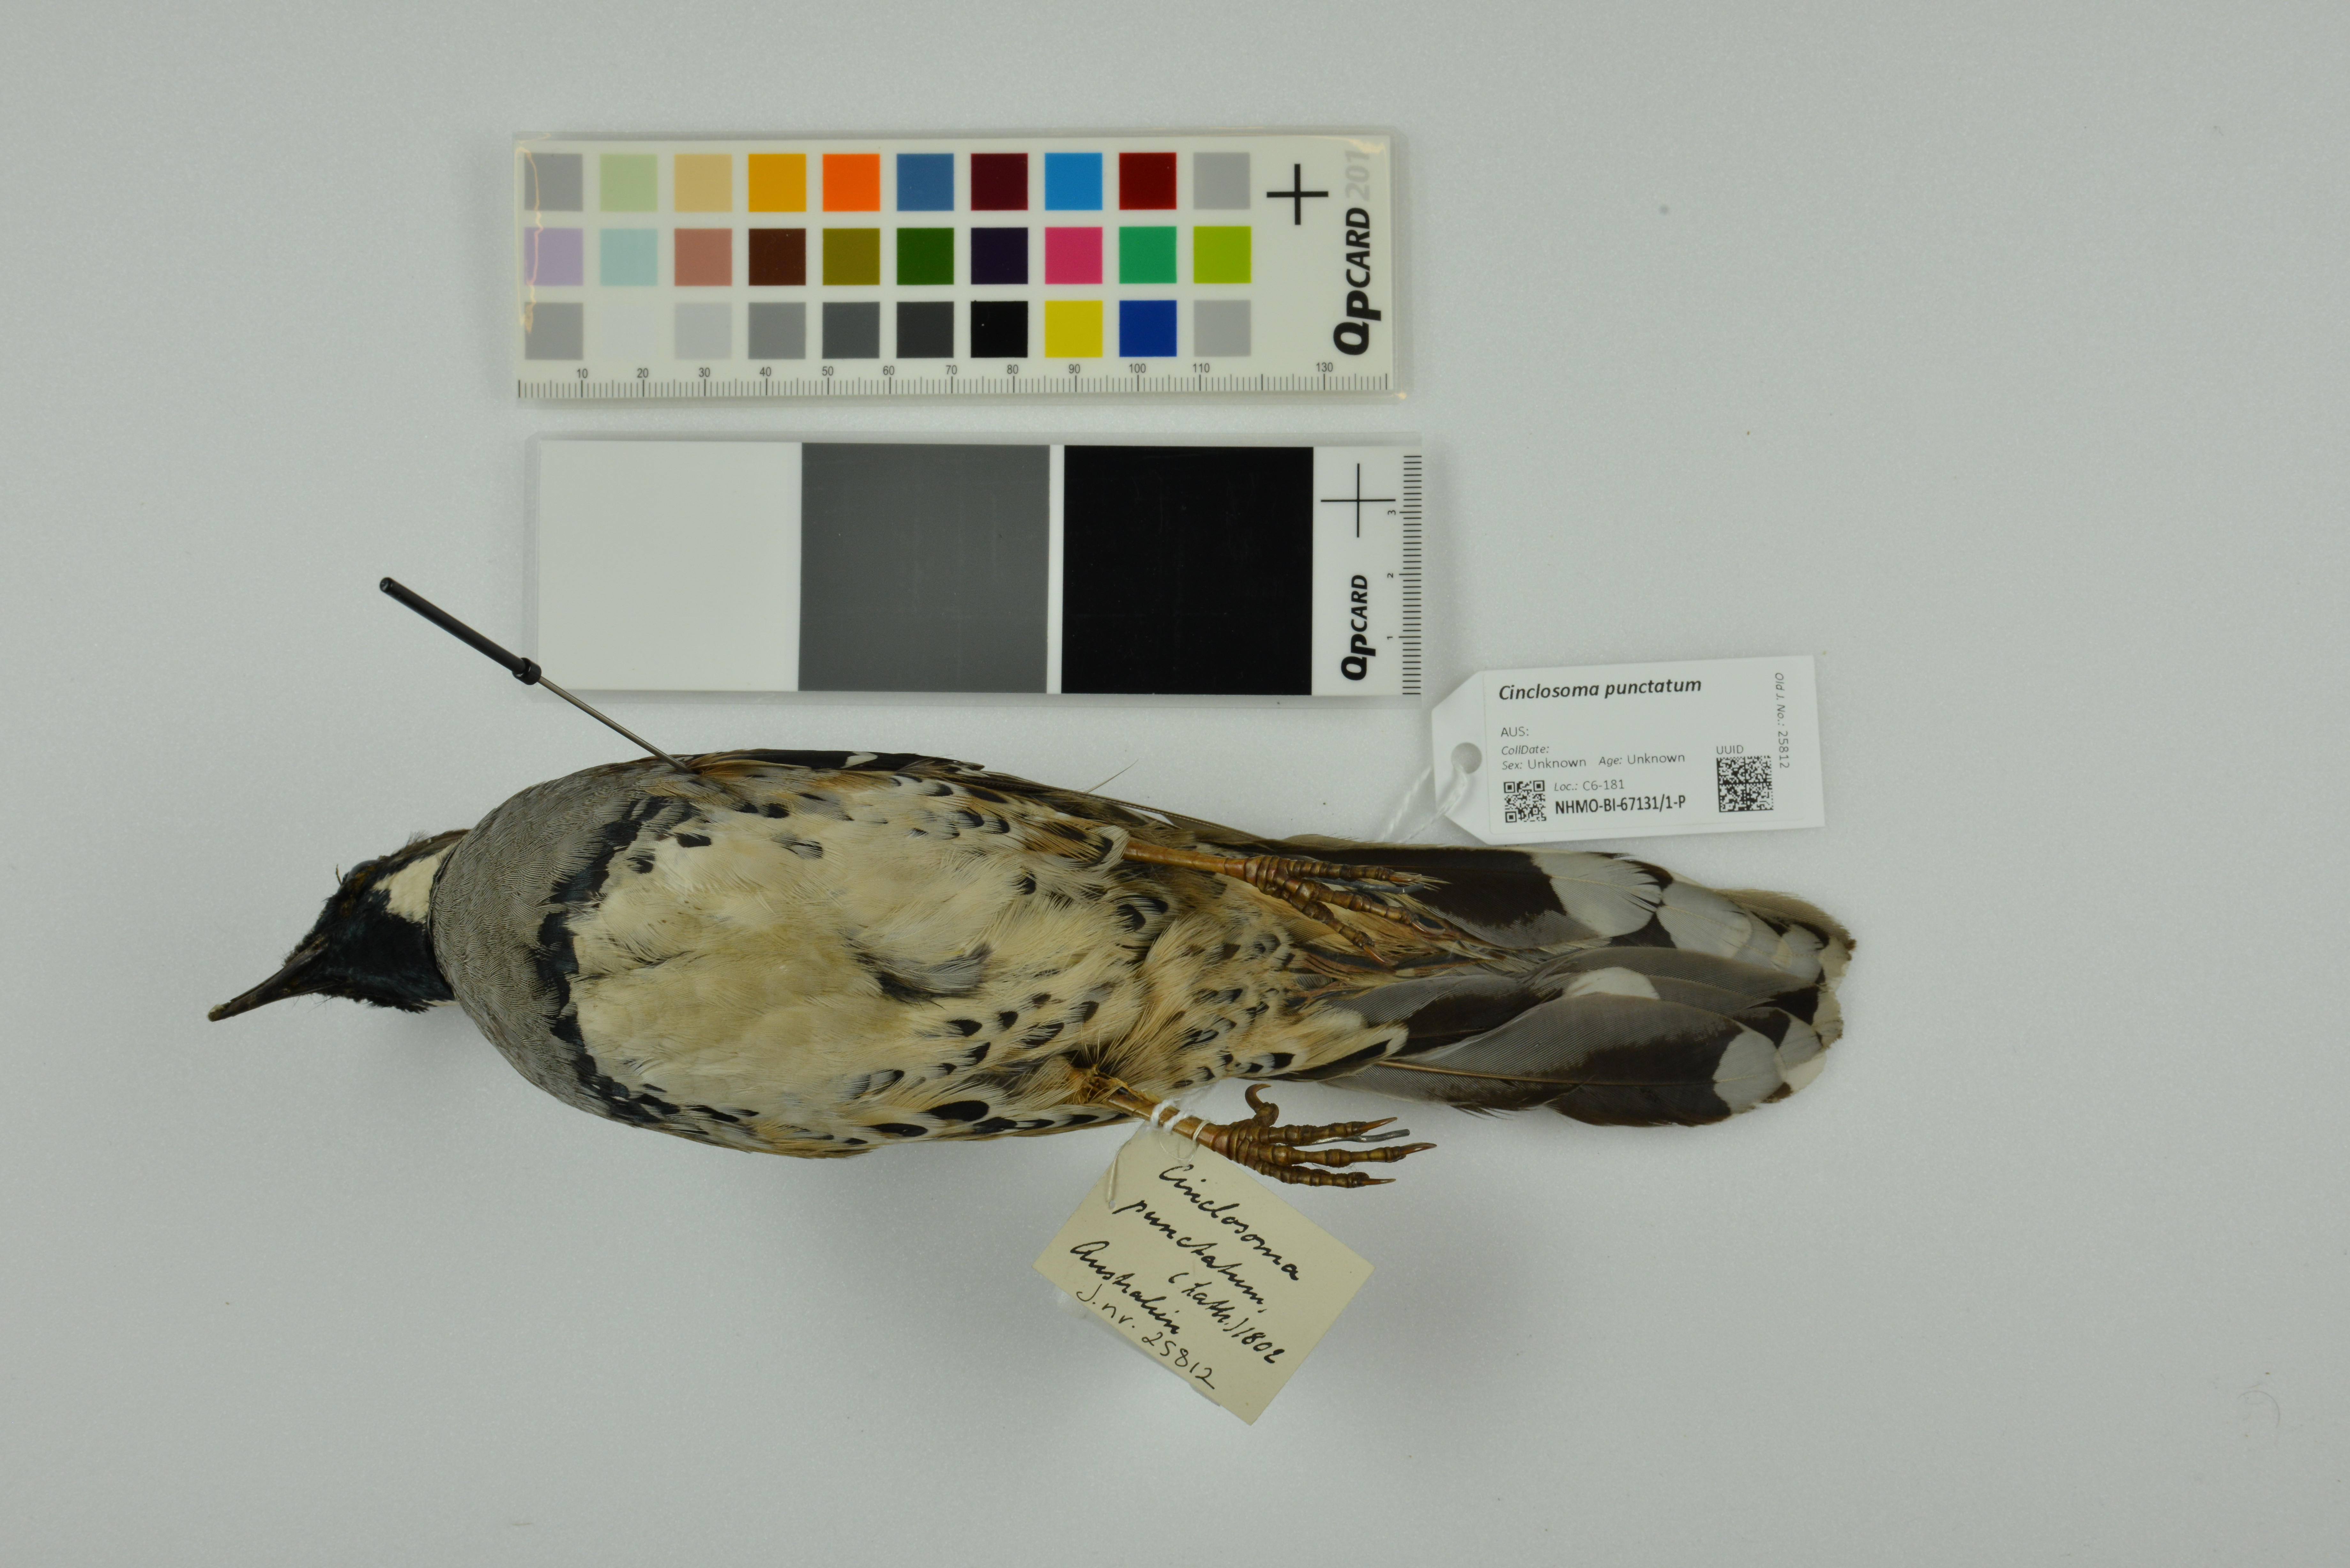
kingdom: Animalia
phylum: Chordata
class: Aves
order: Passeriformes
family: Psophodidae
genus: Cinclosoma
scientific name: Cinclosoma punctatum
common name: Spotted quail-thrush
